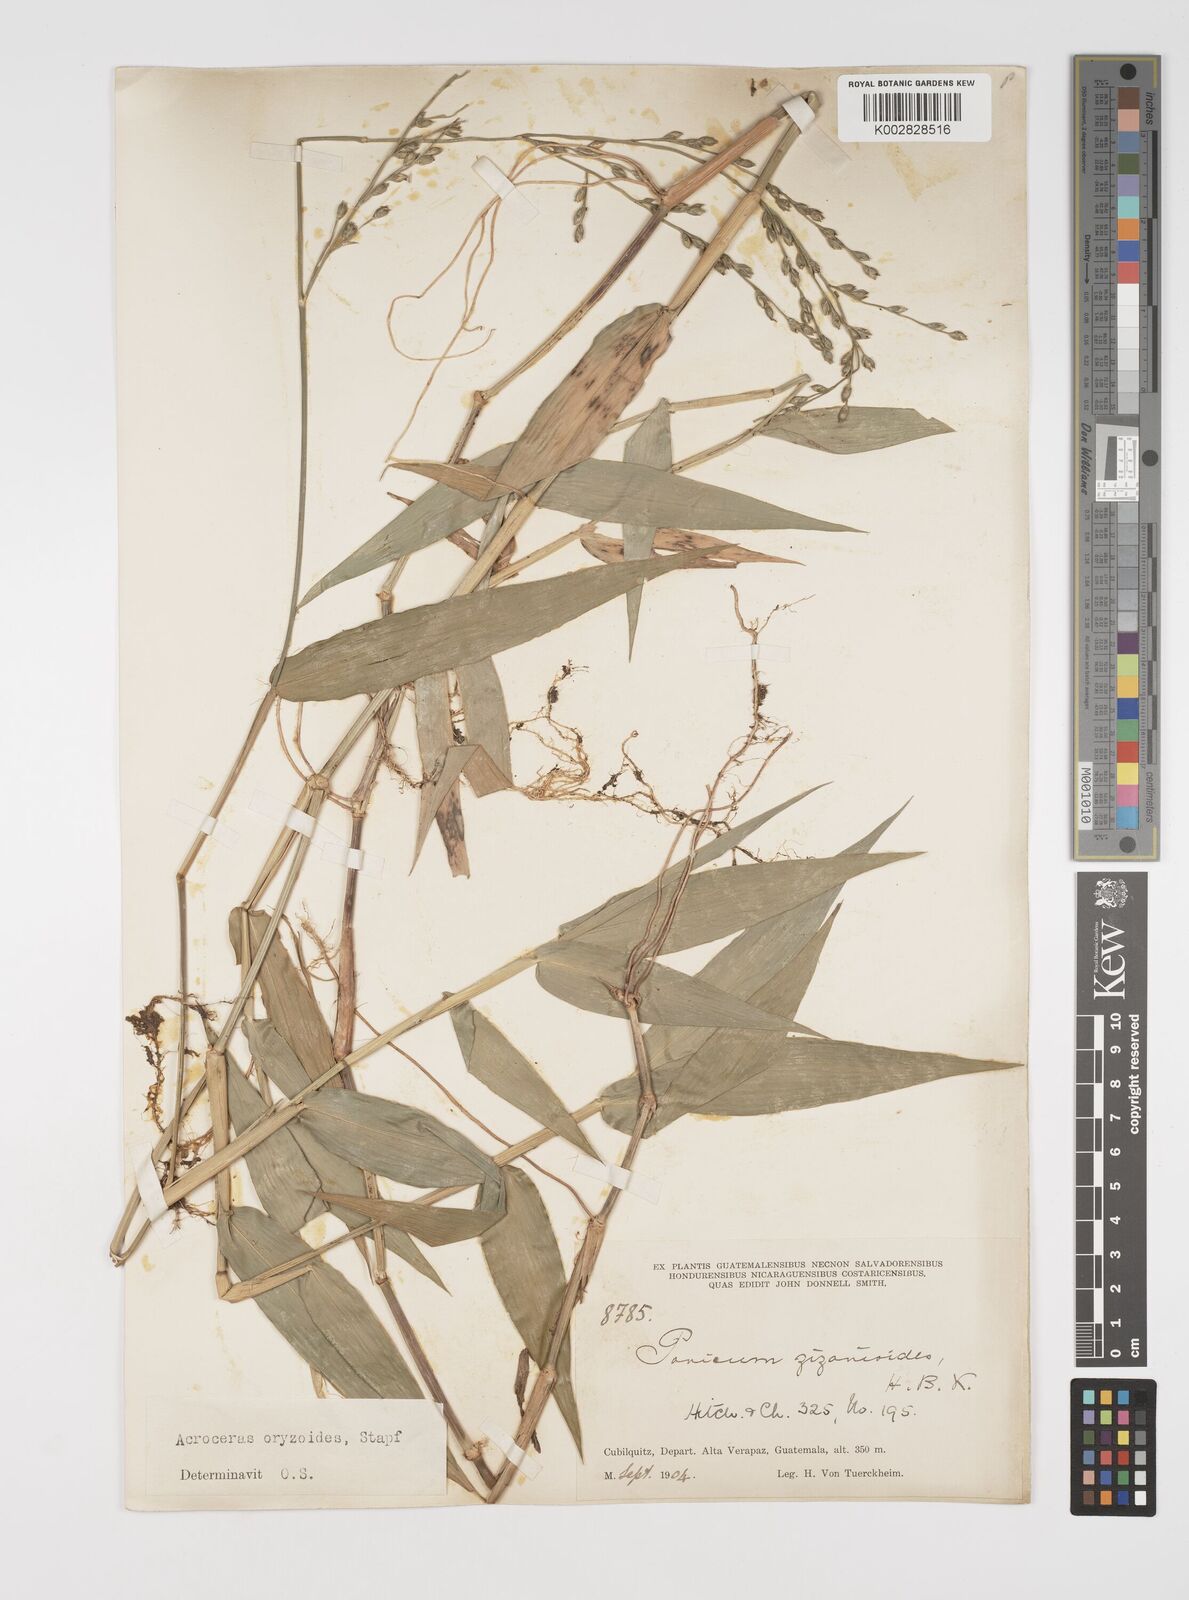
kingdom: Plantae
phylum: Tracheophyta
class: Liliopsida
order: Poales
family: Poaceae
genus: Acroceras
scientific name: Acroceras zizanioides
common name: Oat grass
